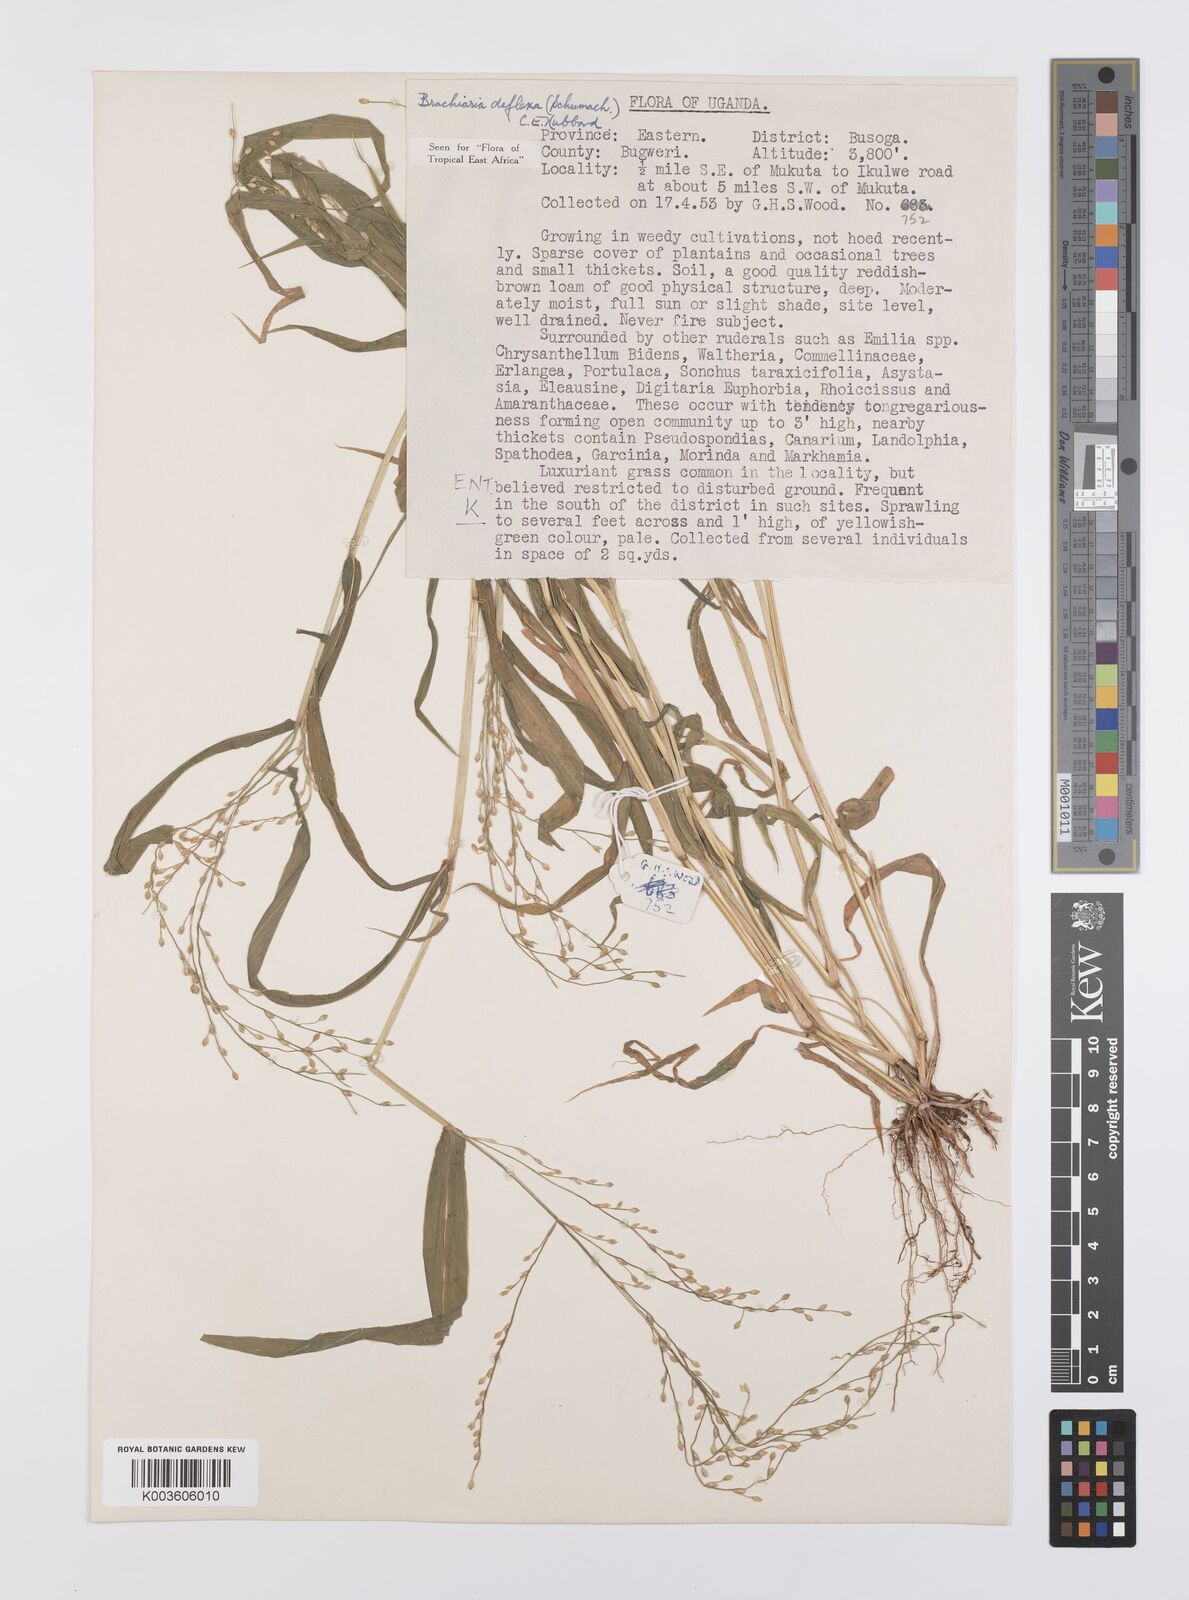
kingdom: Plantae
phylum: Tracheophyta
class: Liliopsida
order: Poales
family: Poaceae
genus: Urochloa
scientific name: Urochloa deflexa
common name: Guinea millet
